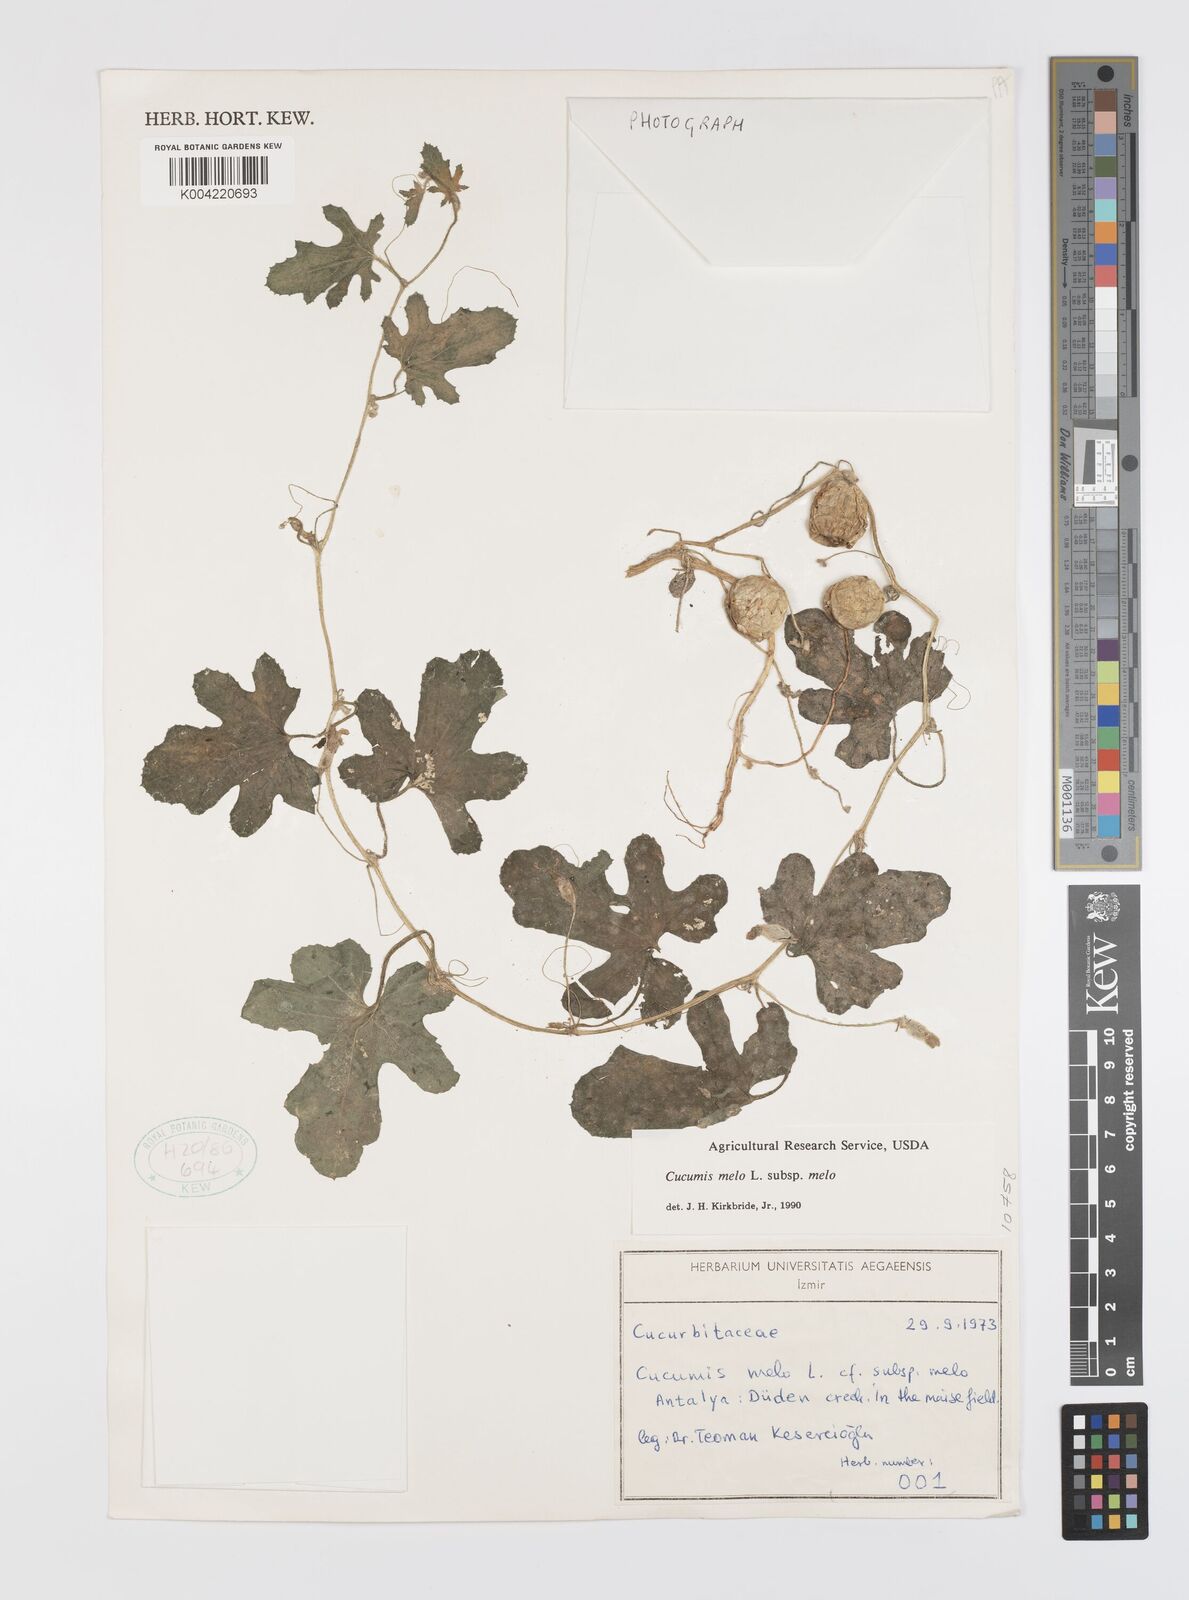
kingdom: Plantae
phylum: Tracheophyta
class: Magnoliopsida
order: Cucurbitales
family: Cucurbitaceae
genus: Cucumis
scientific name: Cucumis melo
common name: Melon
